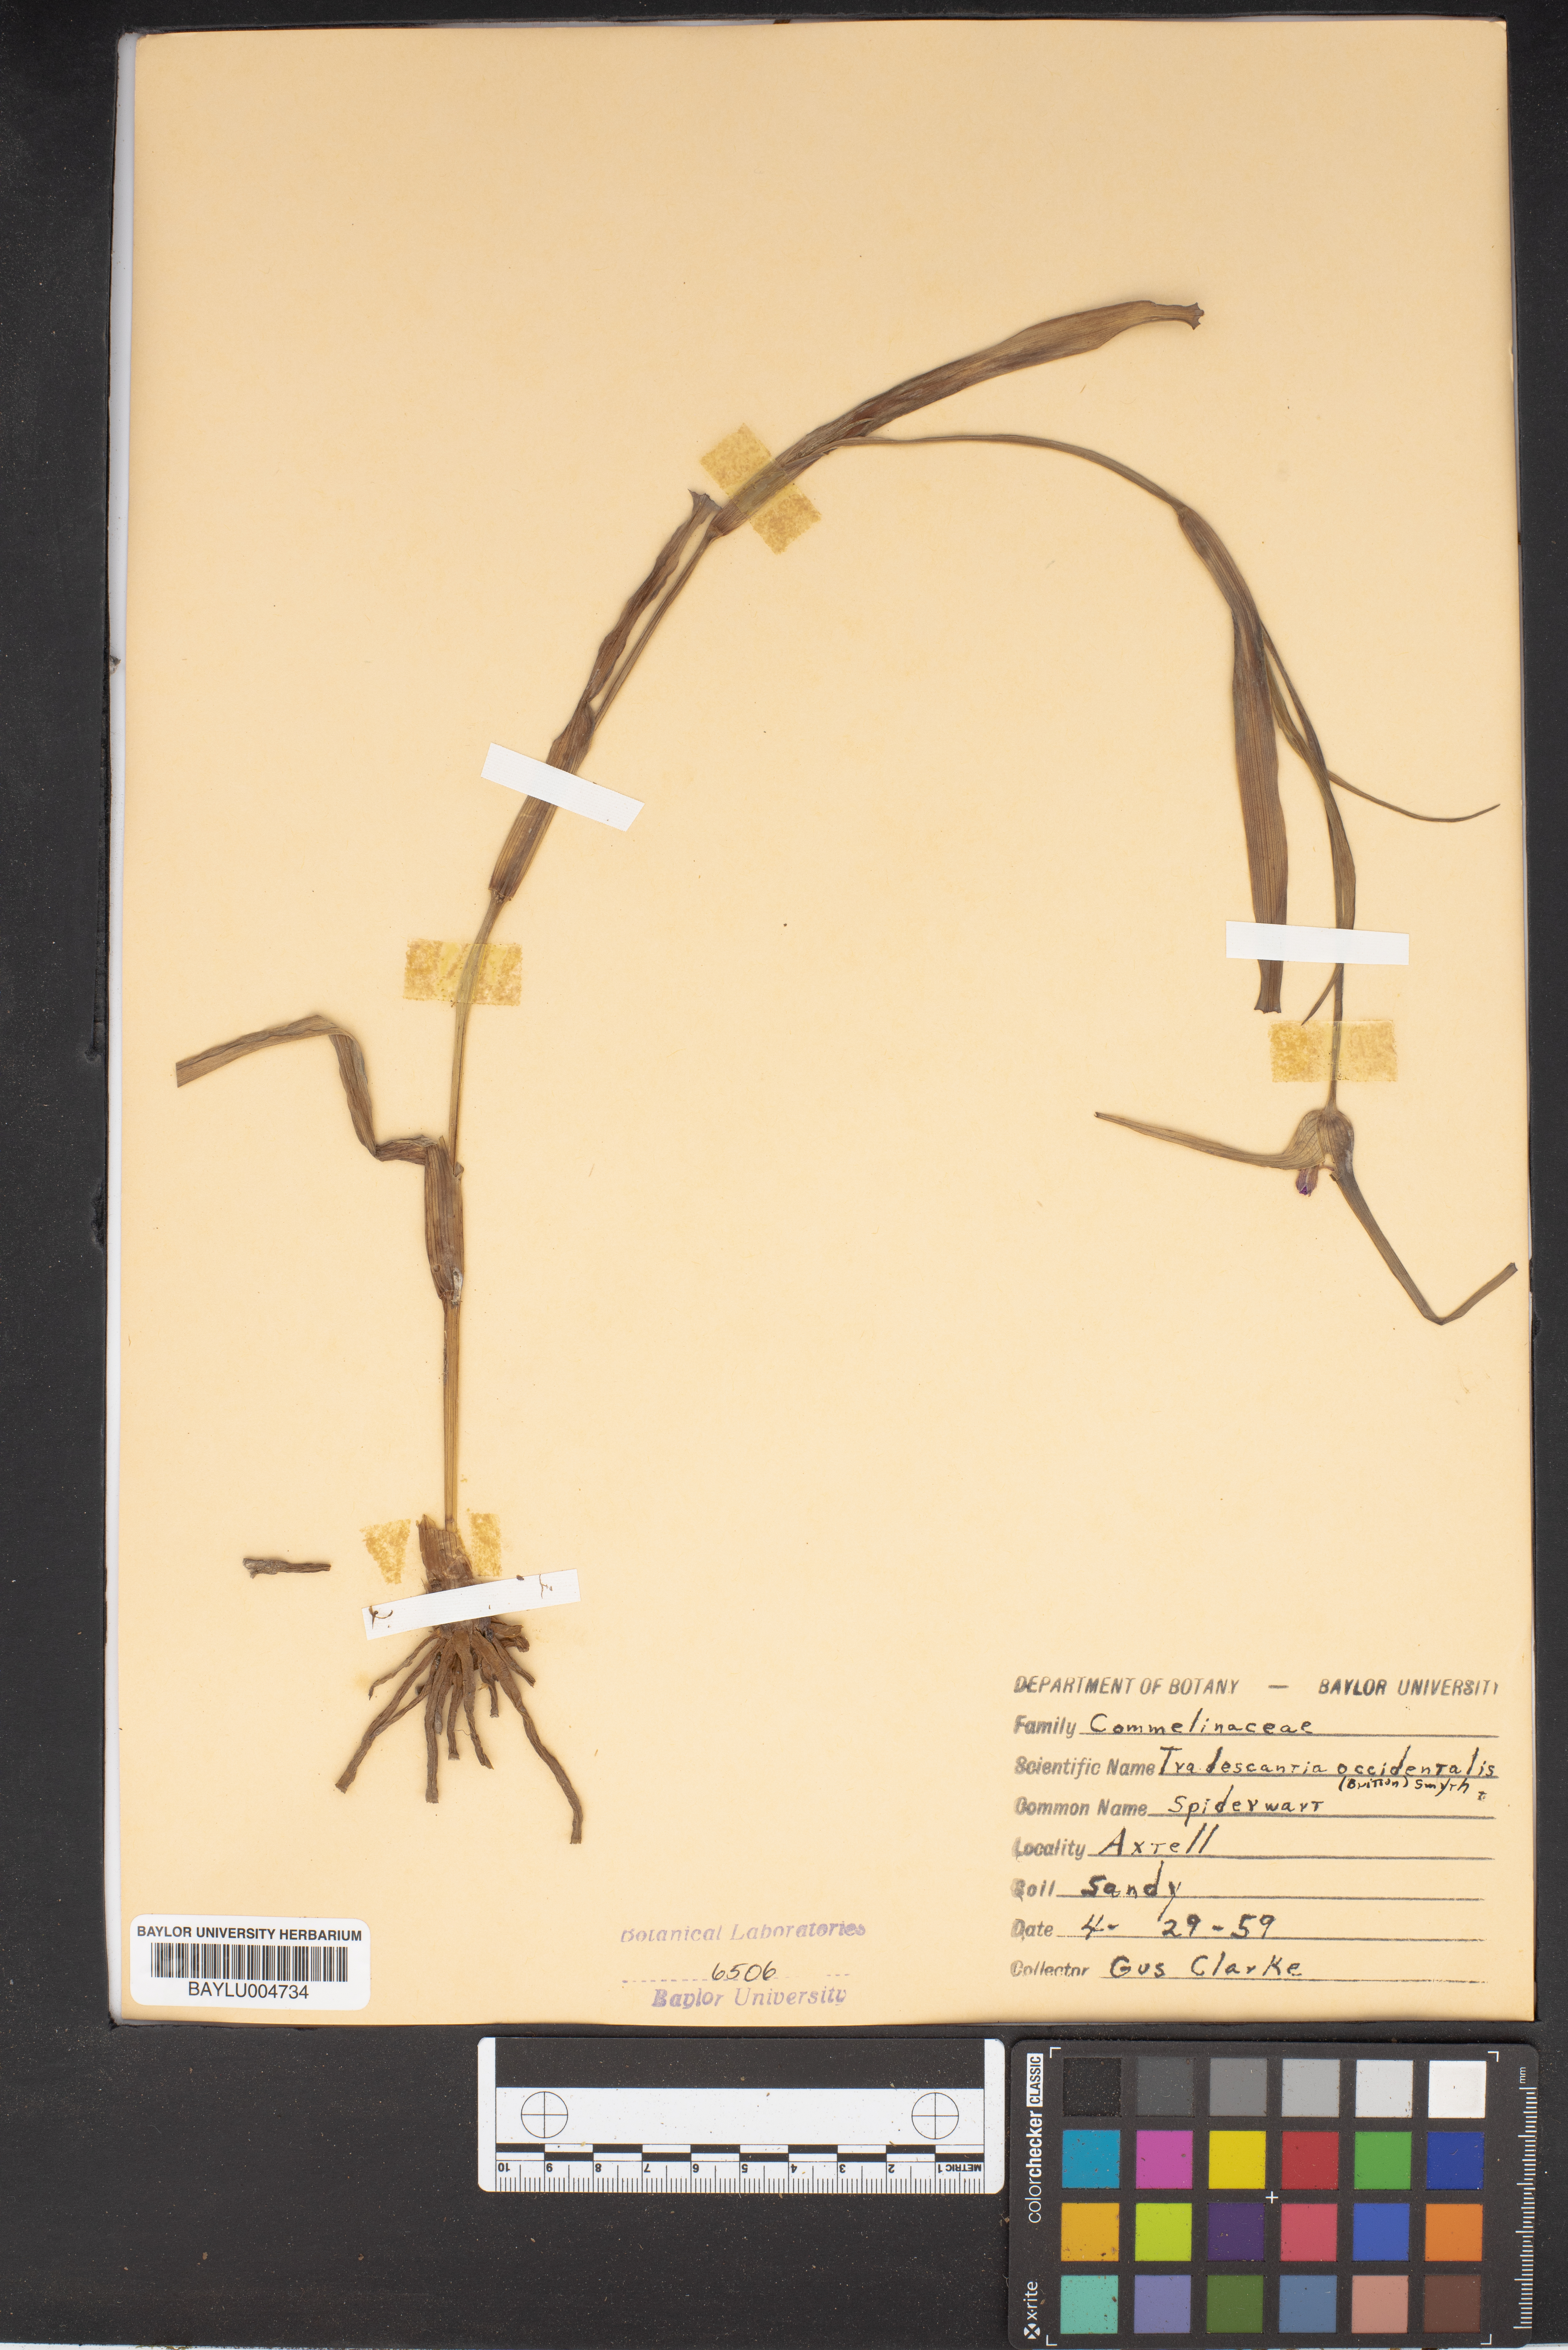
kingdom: Plantae
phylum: Tracheophyta
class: Liliopsida
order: Commelinales
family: Commelinaceae
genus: Tradescantia
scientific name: Tradescantia occidentalis
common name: Prairie spiderwort
